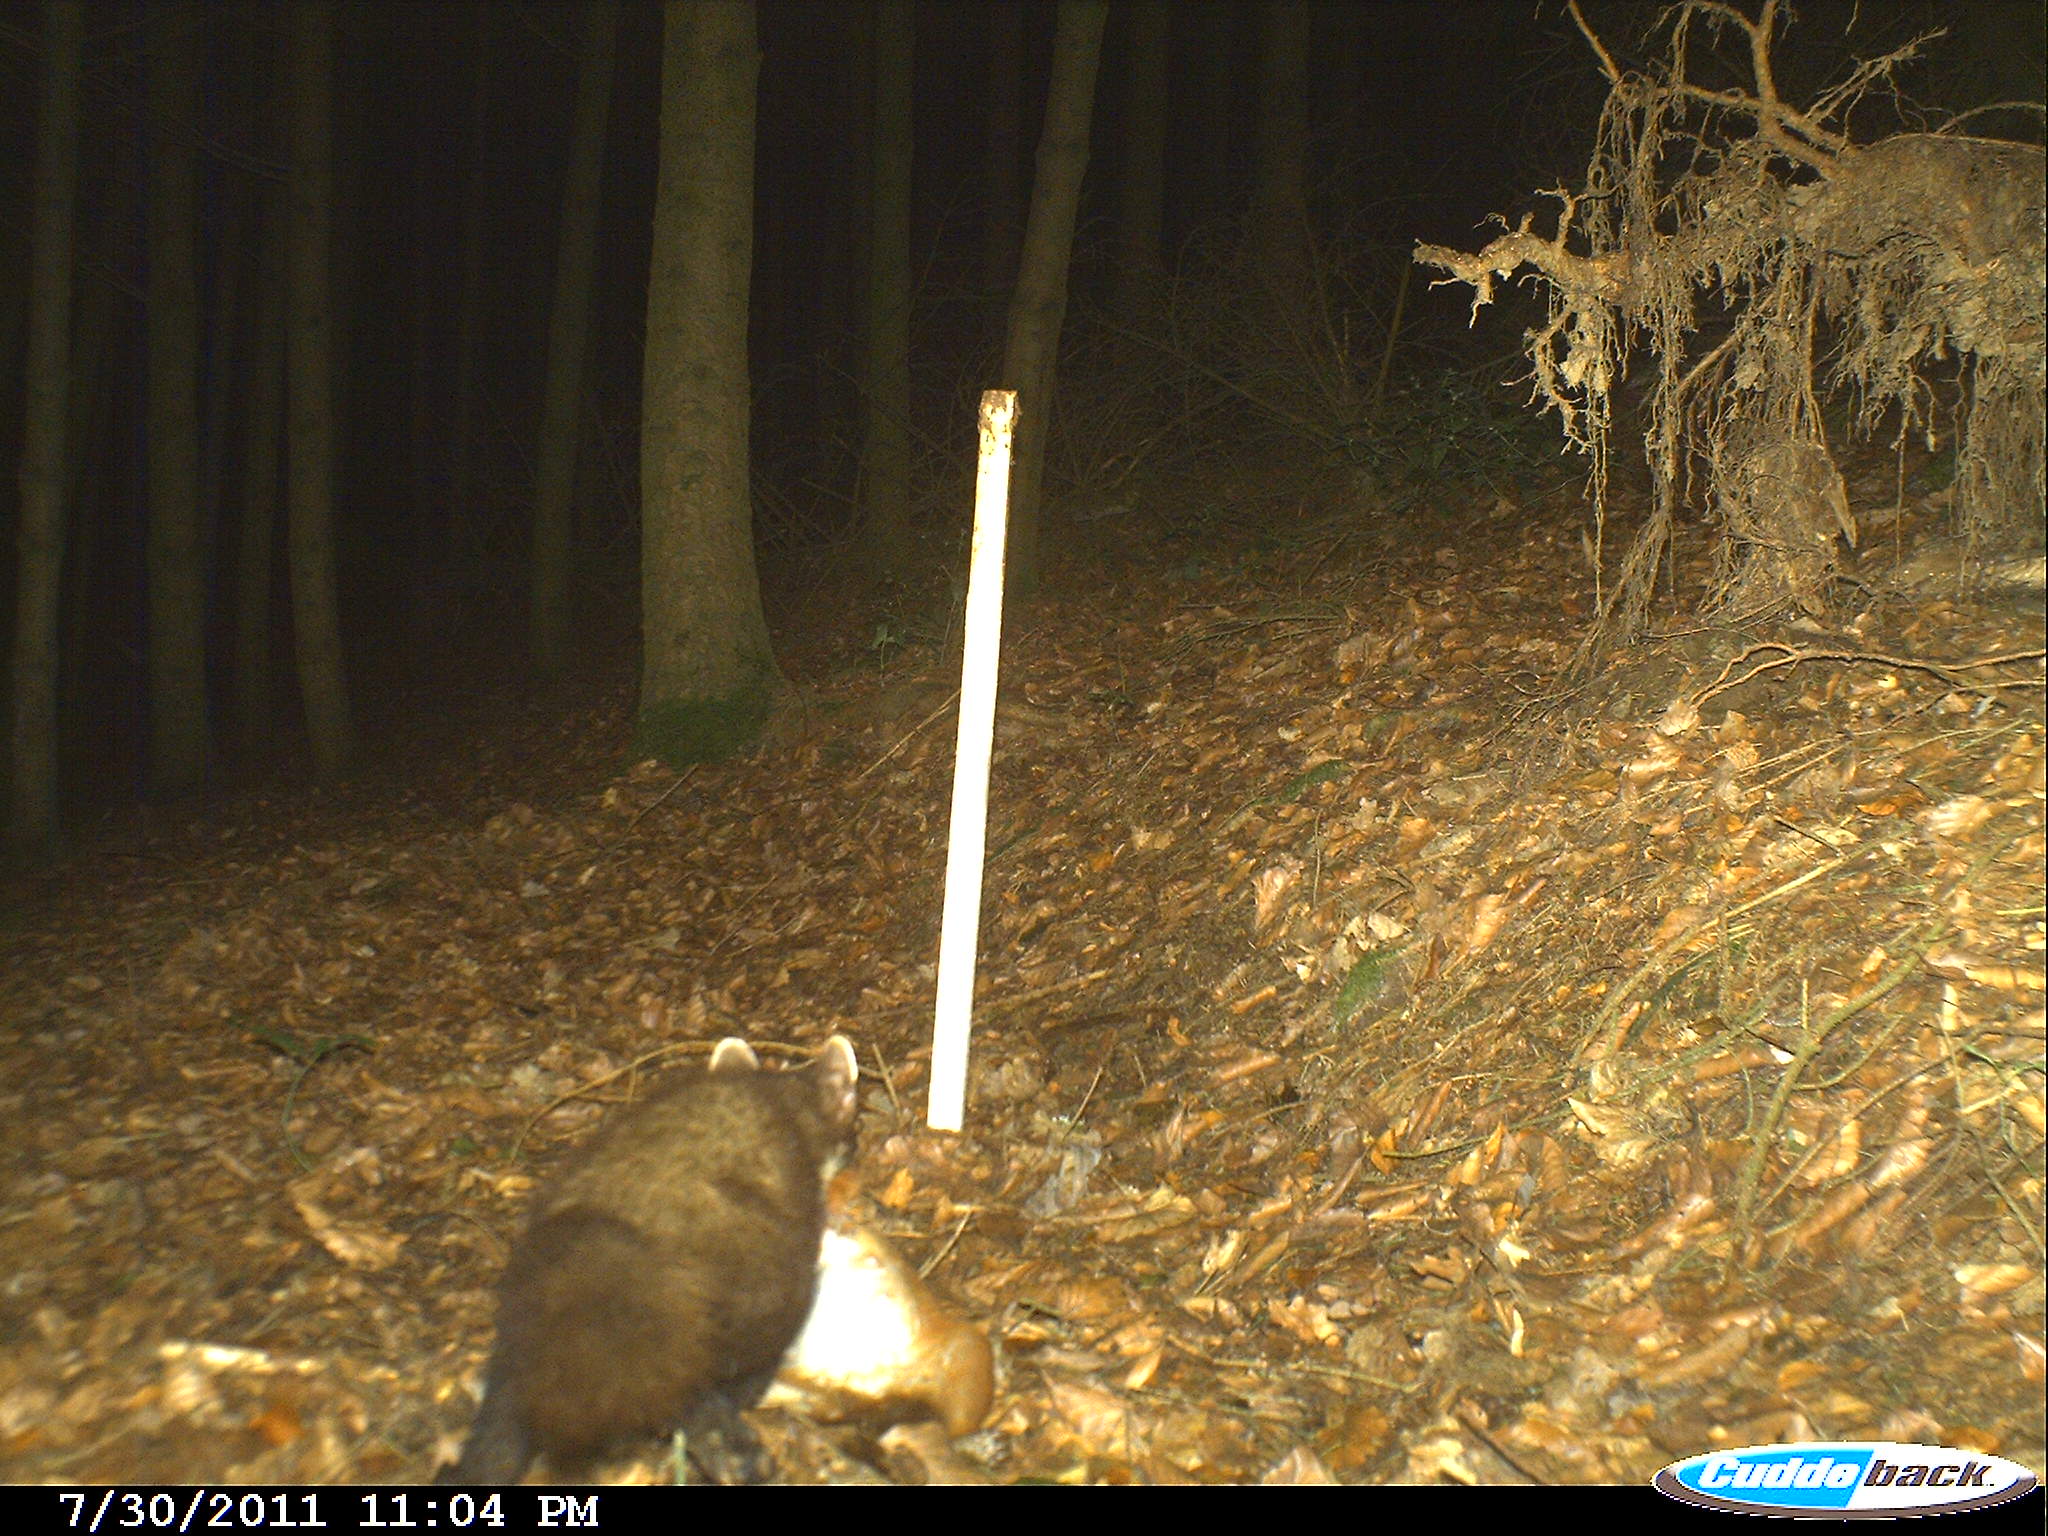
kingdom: Animalia
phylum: Chordata
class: Mammalia
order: Carnivora
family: Mustelidae
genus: Martes
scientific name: Martes
